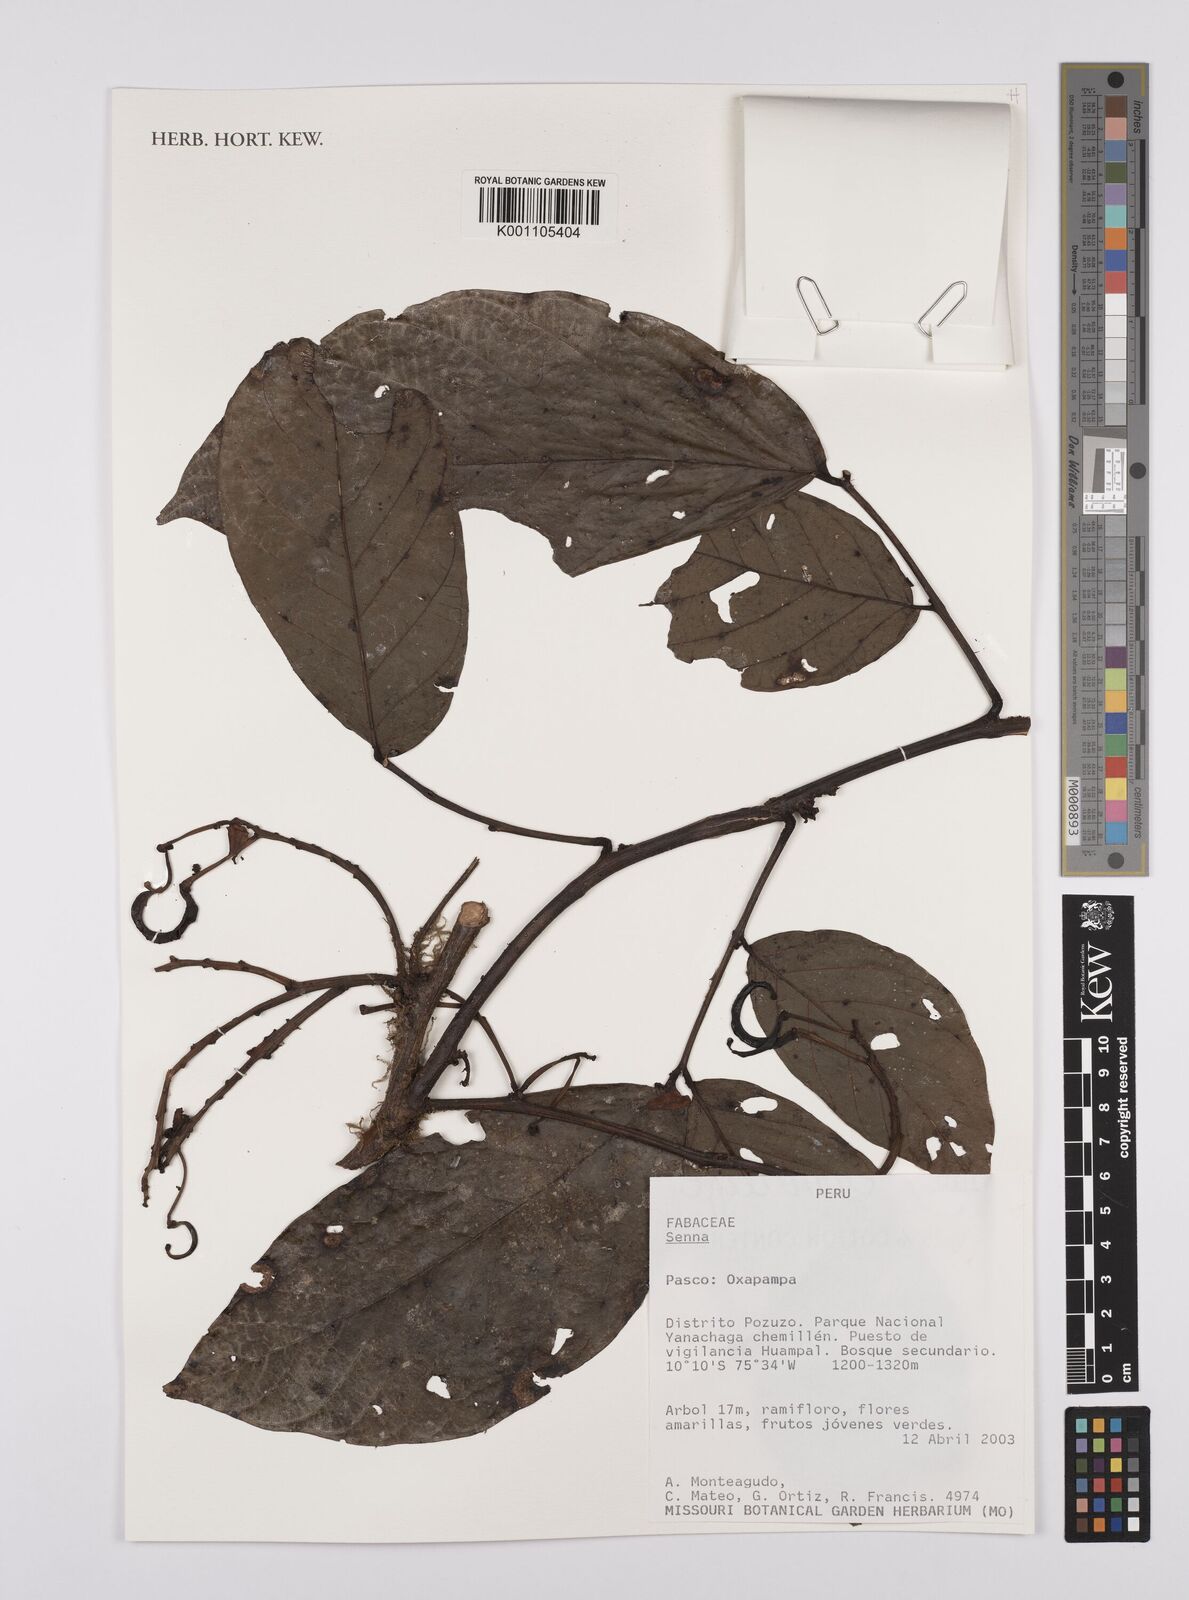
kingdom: Plantae
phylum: Tracheophyta
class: Magnoliopsida
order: Fabales
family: Fabaceae
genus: Senna
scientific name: Senna
